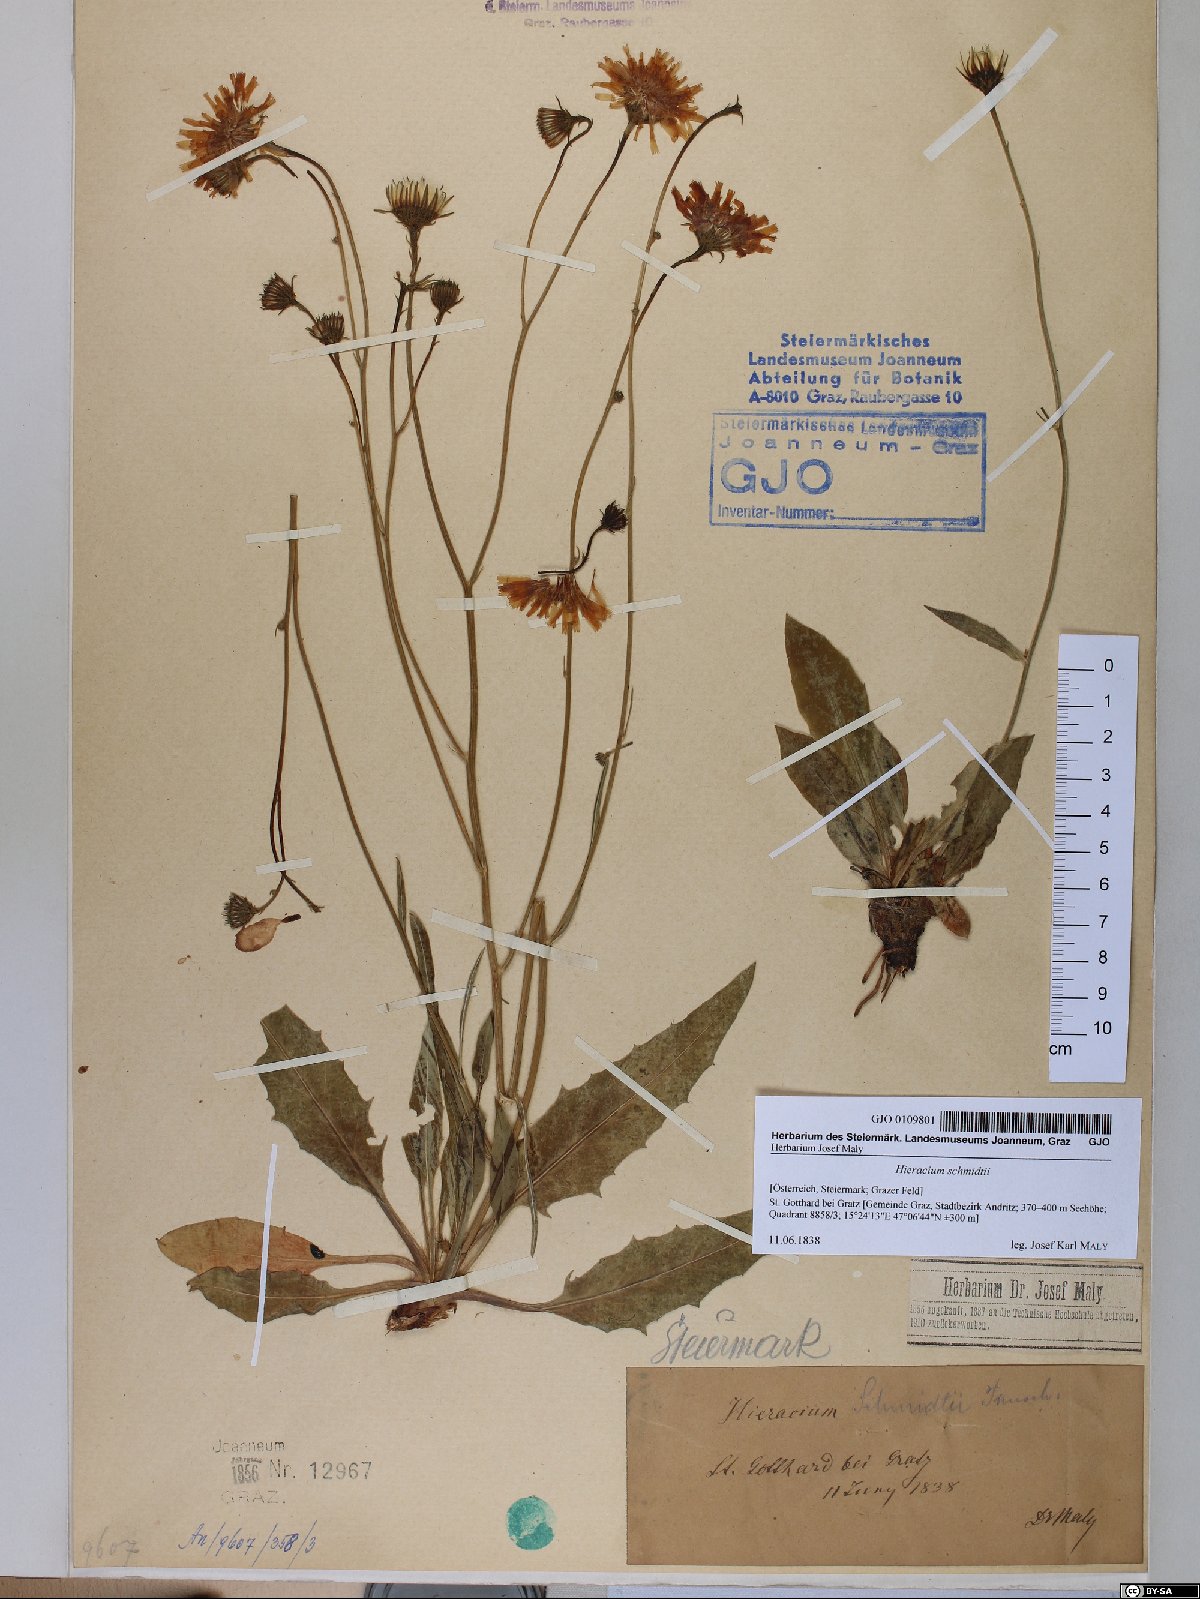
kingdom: Plantae
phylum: Tracheophyta
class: Magnoliopsida
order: Asterales
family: Asteraceae
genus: Hieracium
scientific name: Hieracium schmidtii
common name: Schmidt's hawkweed
